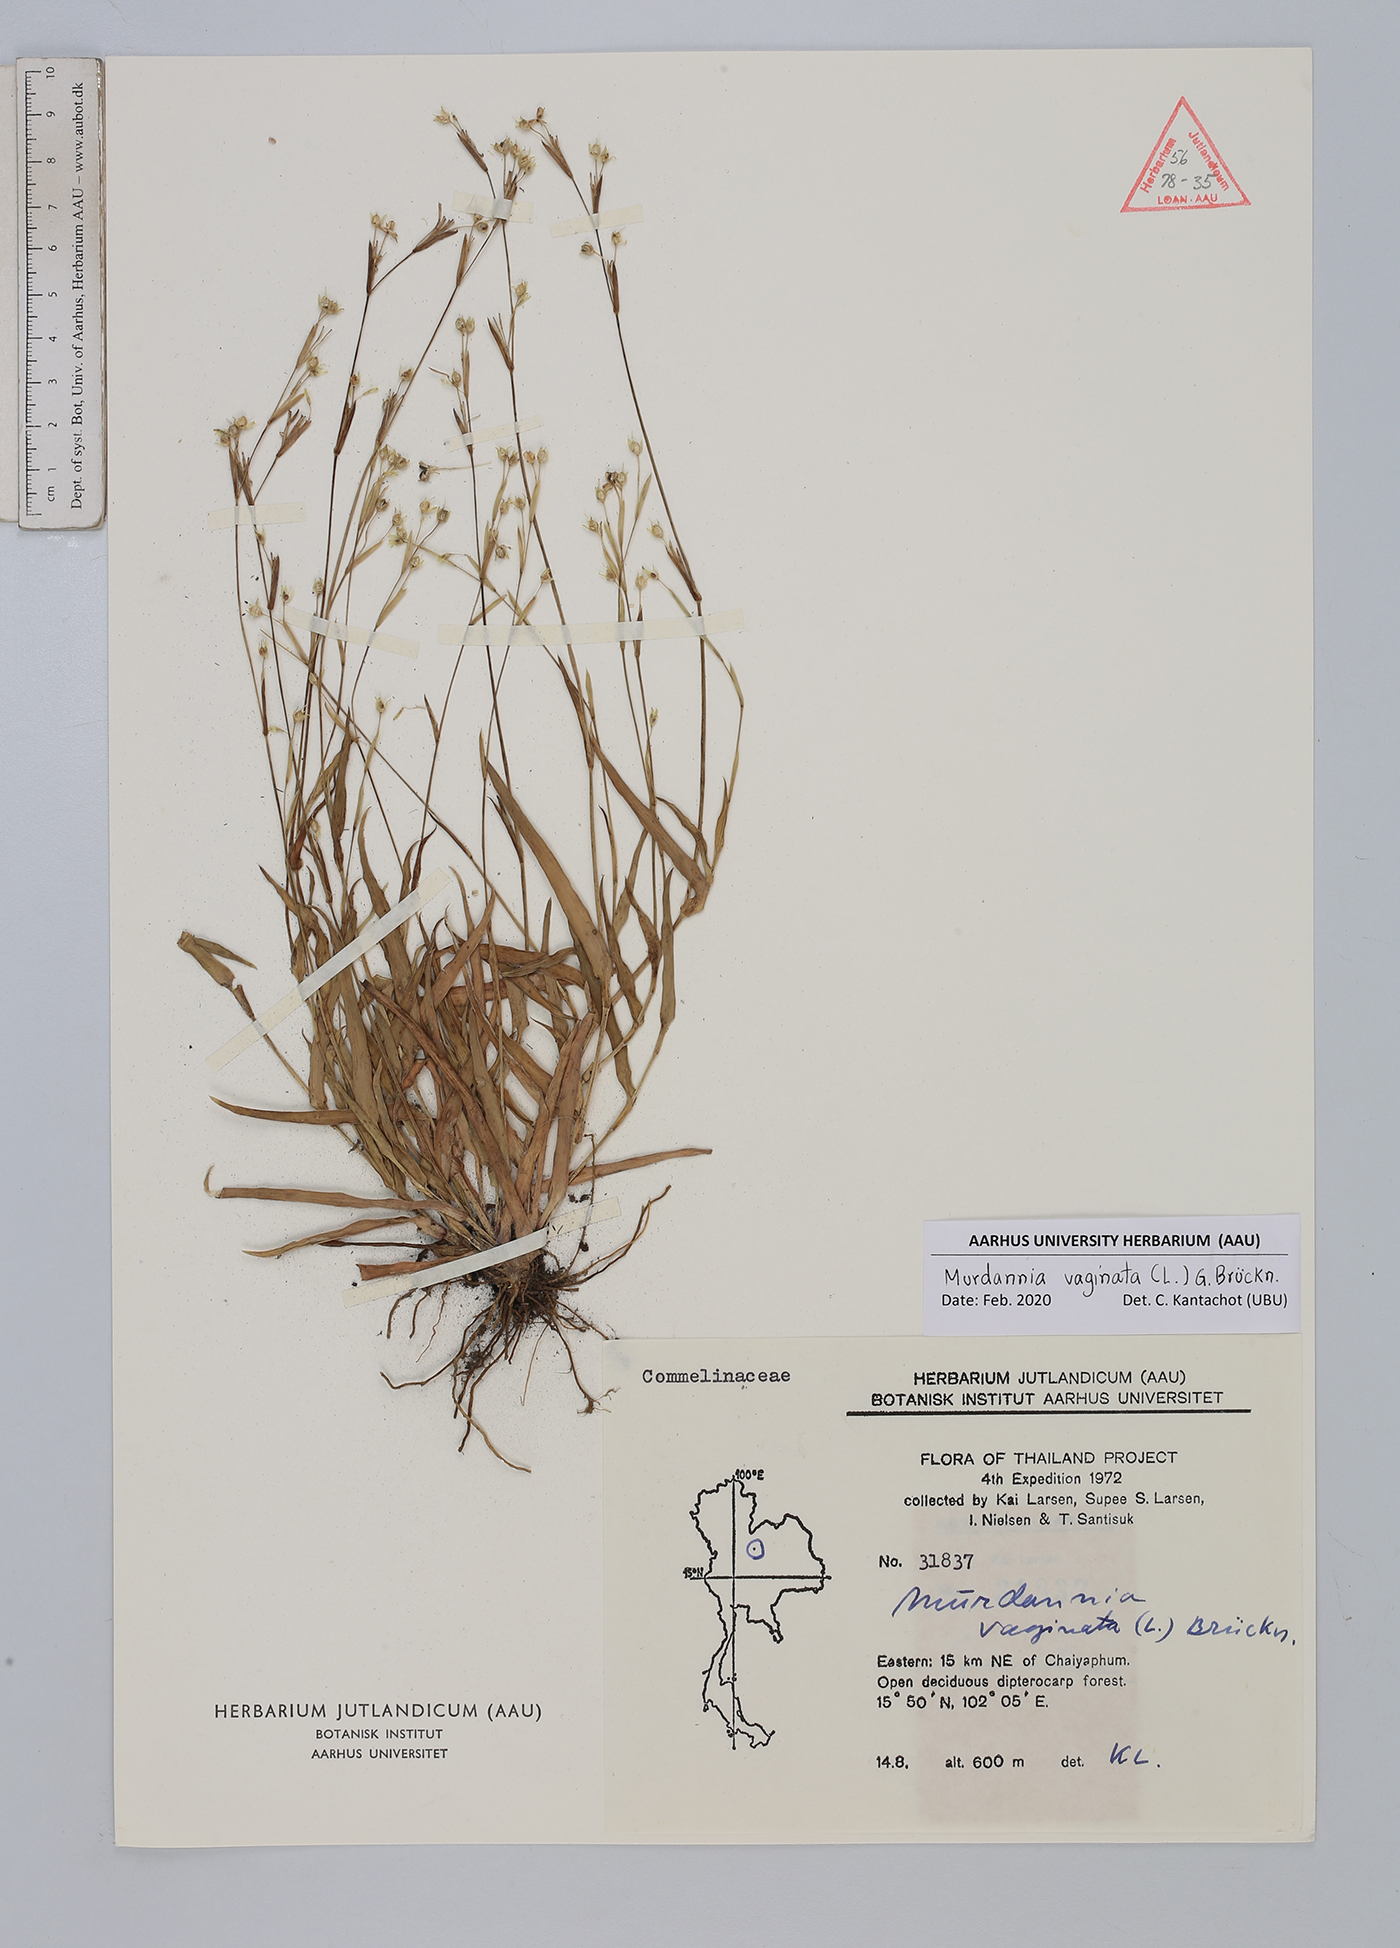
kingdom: Plantae
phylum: Tracheophyta
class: Liliopsida
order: Commelinales
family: Commelinaceae
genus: Murdannia
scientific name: Murdannia vaginata
